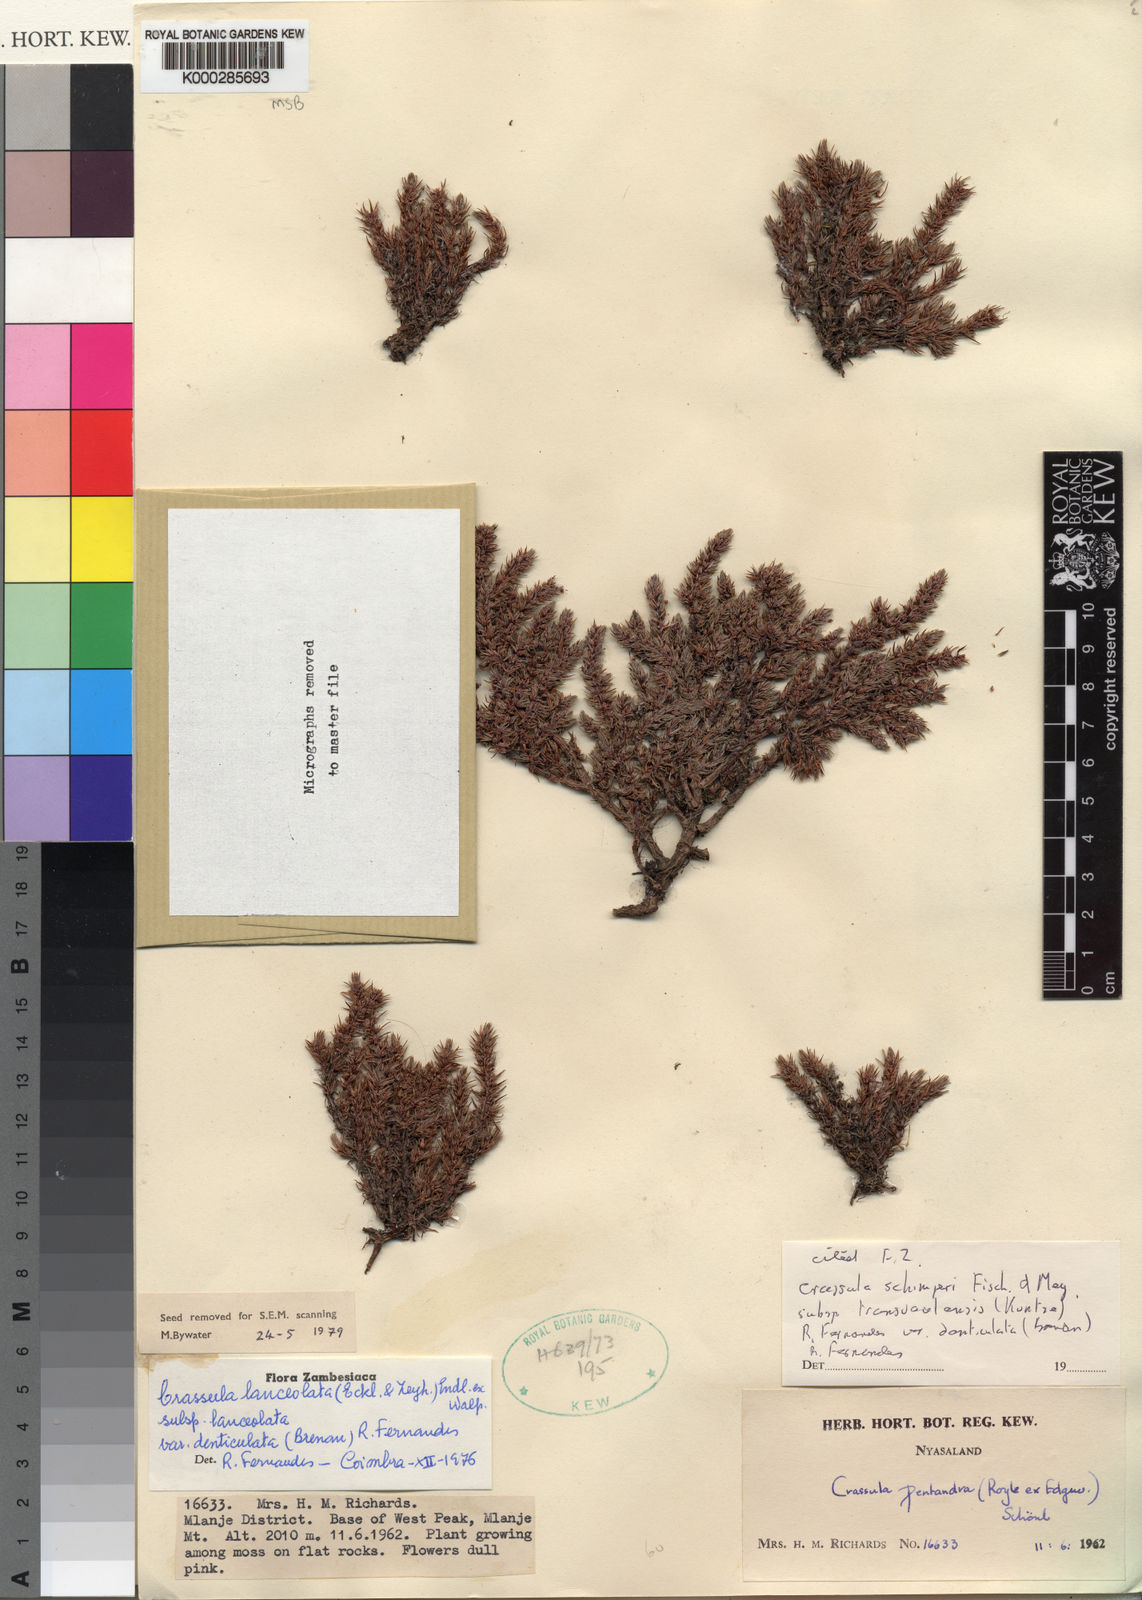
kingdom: Plantae
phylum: Tracheophyta
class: Magnoliopsida
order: Saxifragales
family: Crassulaceae
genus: Crassula
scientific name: Crassula lanceolata
